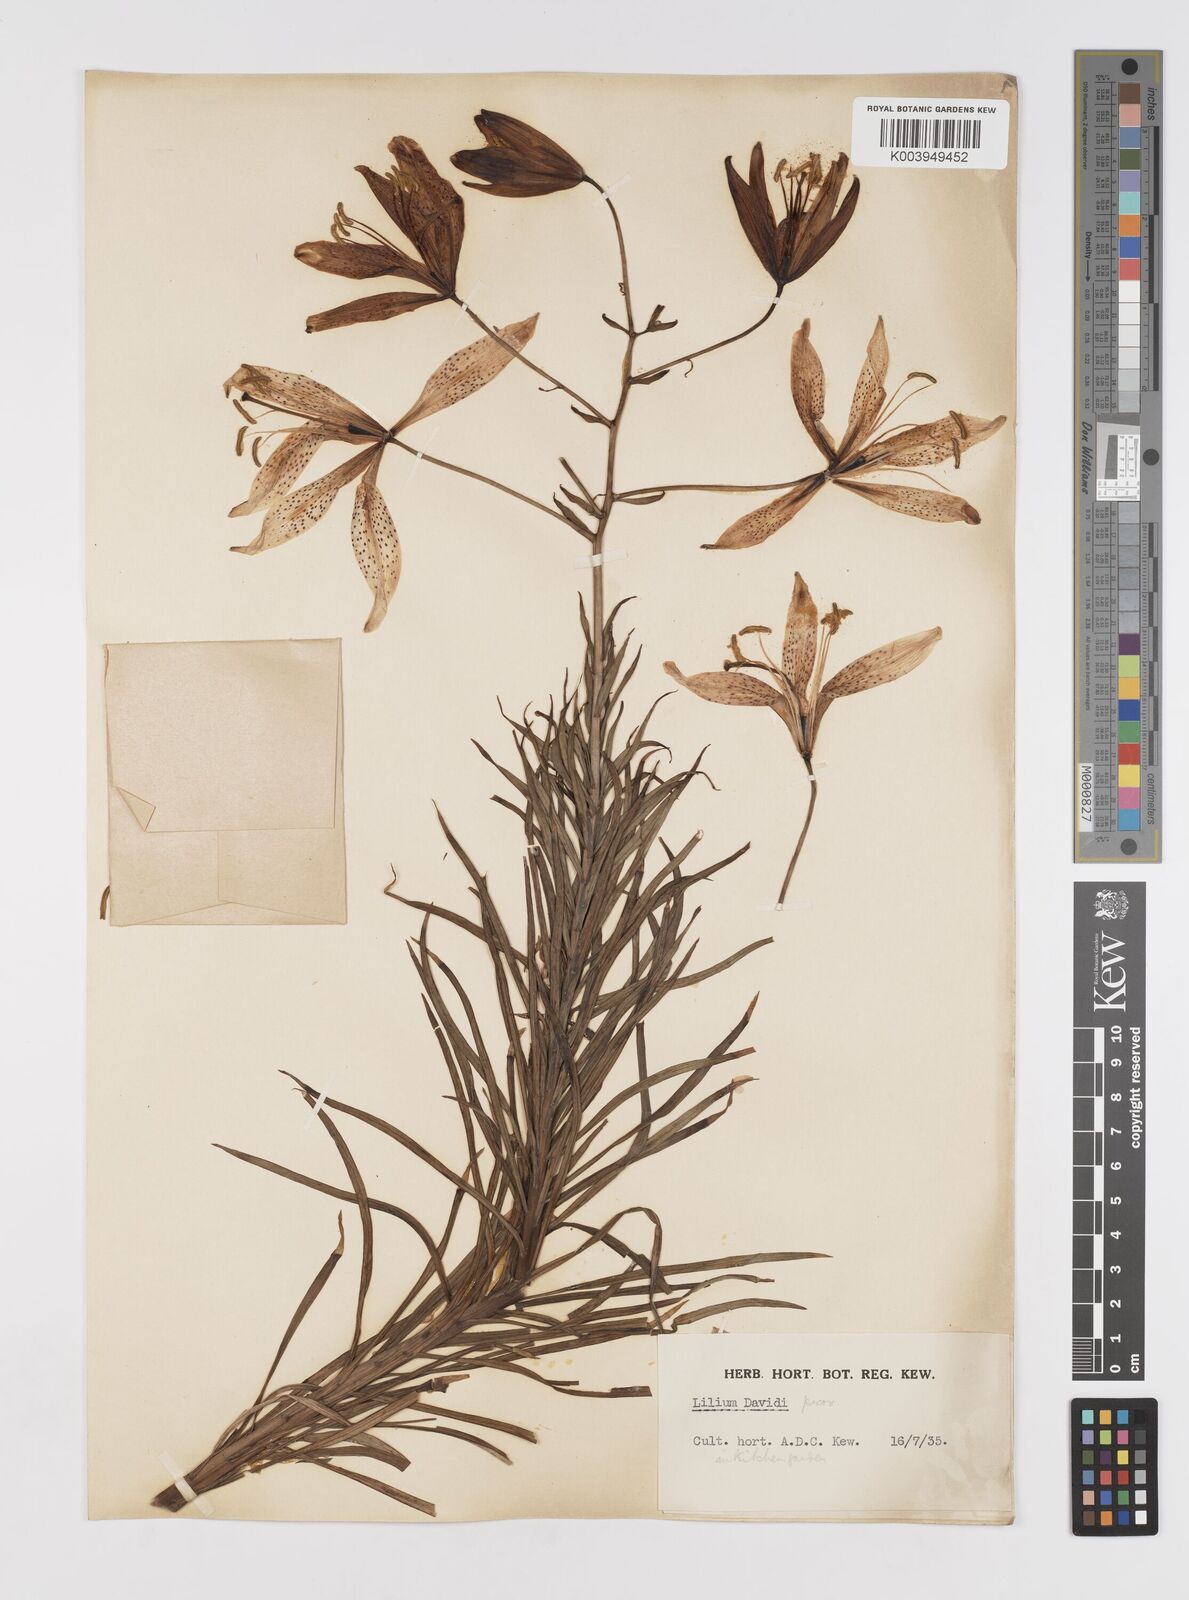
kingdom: Plantae
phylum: Tracheophyta
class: Liliopsida
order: Liliales
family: Liliaceae
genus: Lilium
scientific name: Lilium davidii
